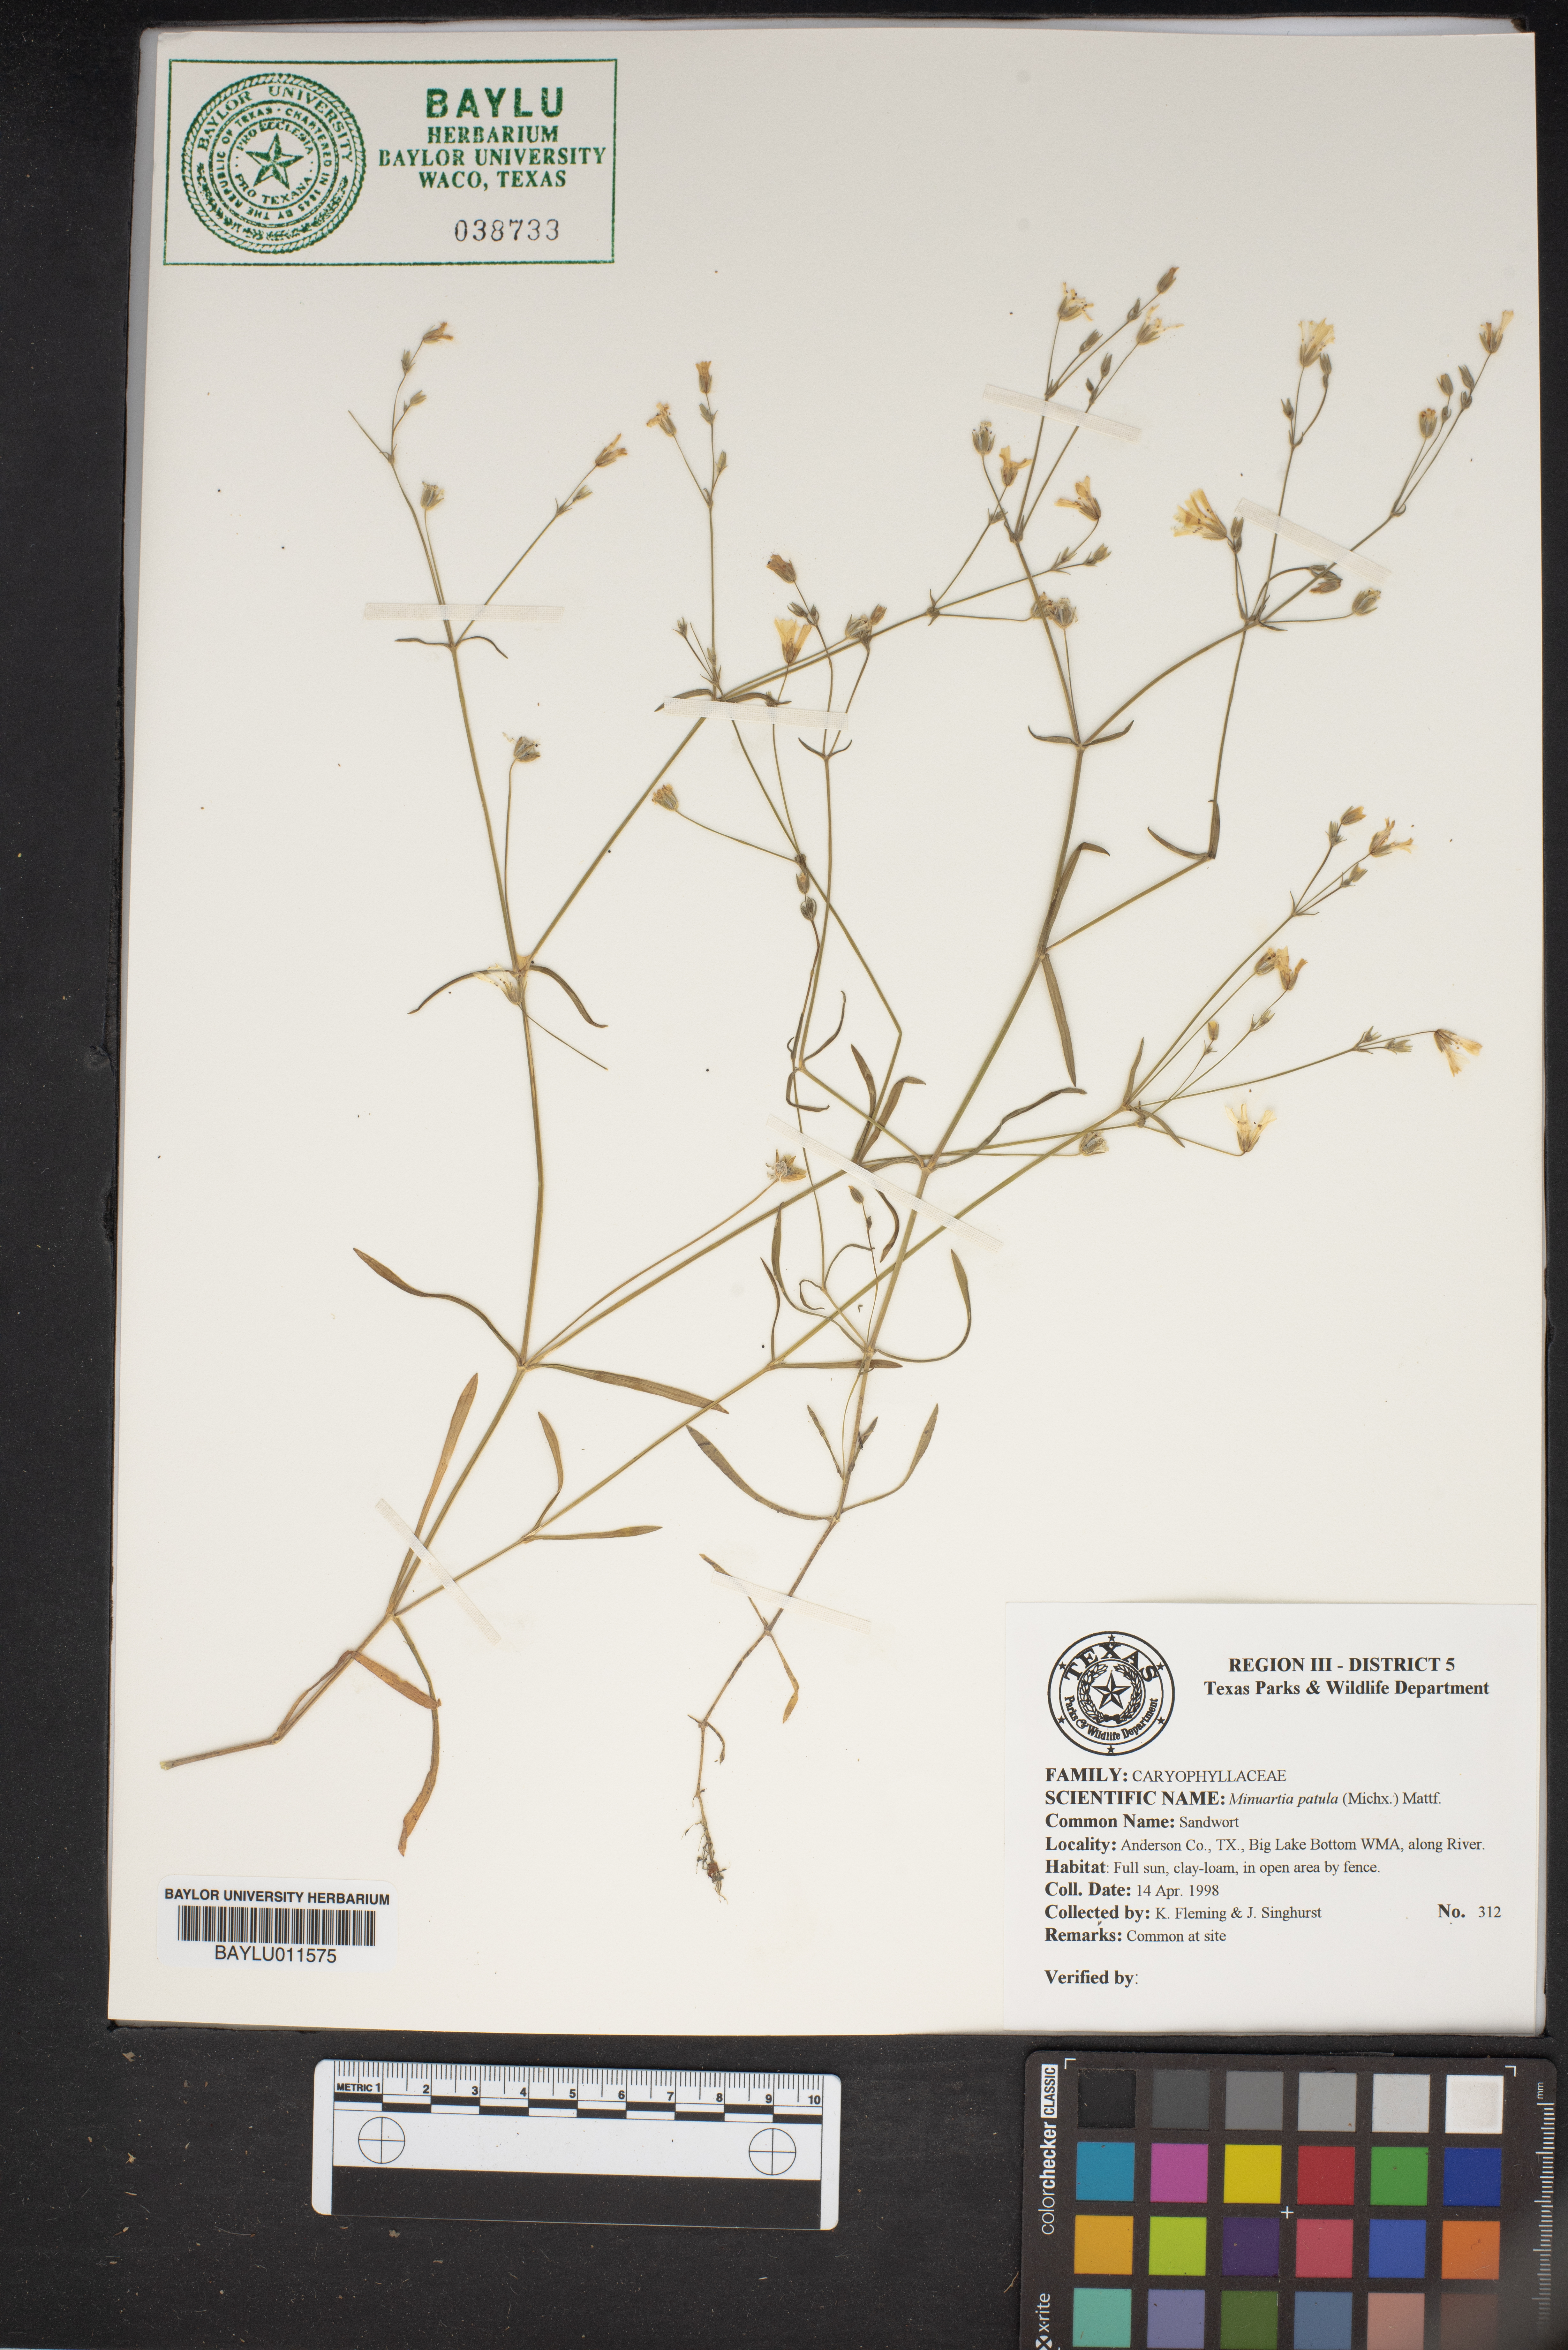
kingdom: Plantae
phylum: Tracheophyta
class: Magnoliopsida
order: Caryophyllales
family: Caryophyllaceae
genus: Mononeuria
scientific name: Mononeuria patula
